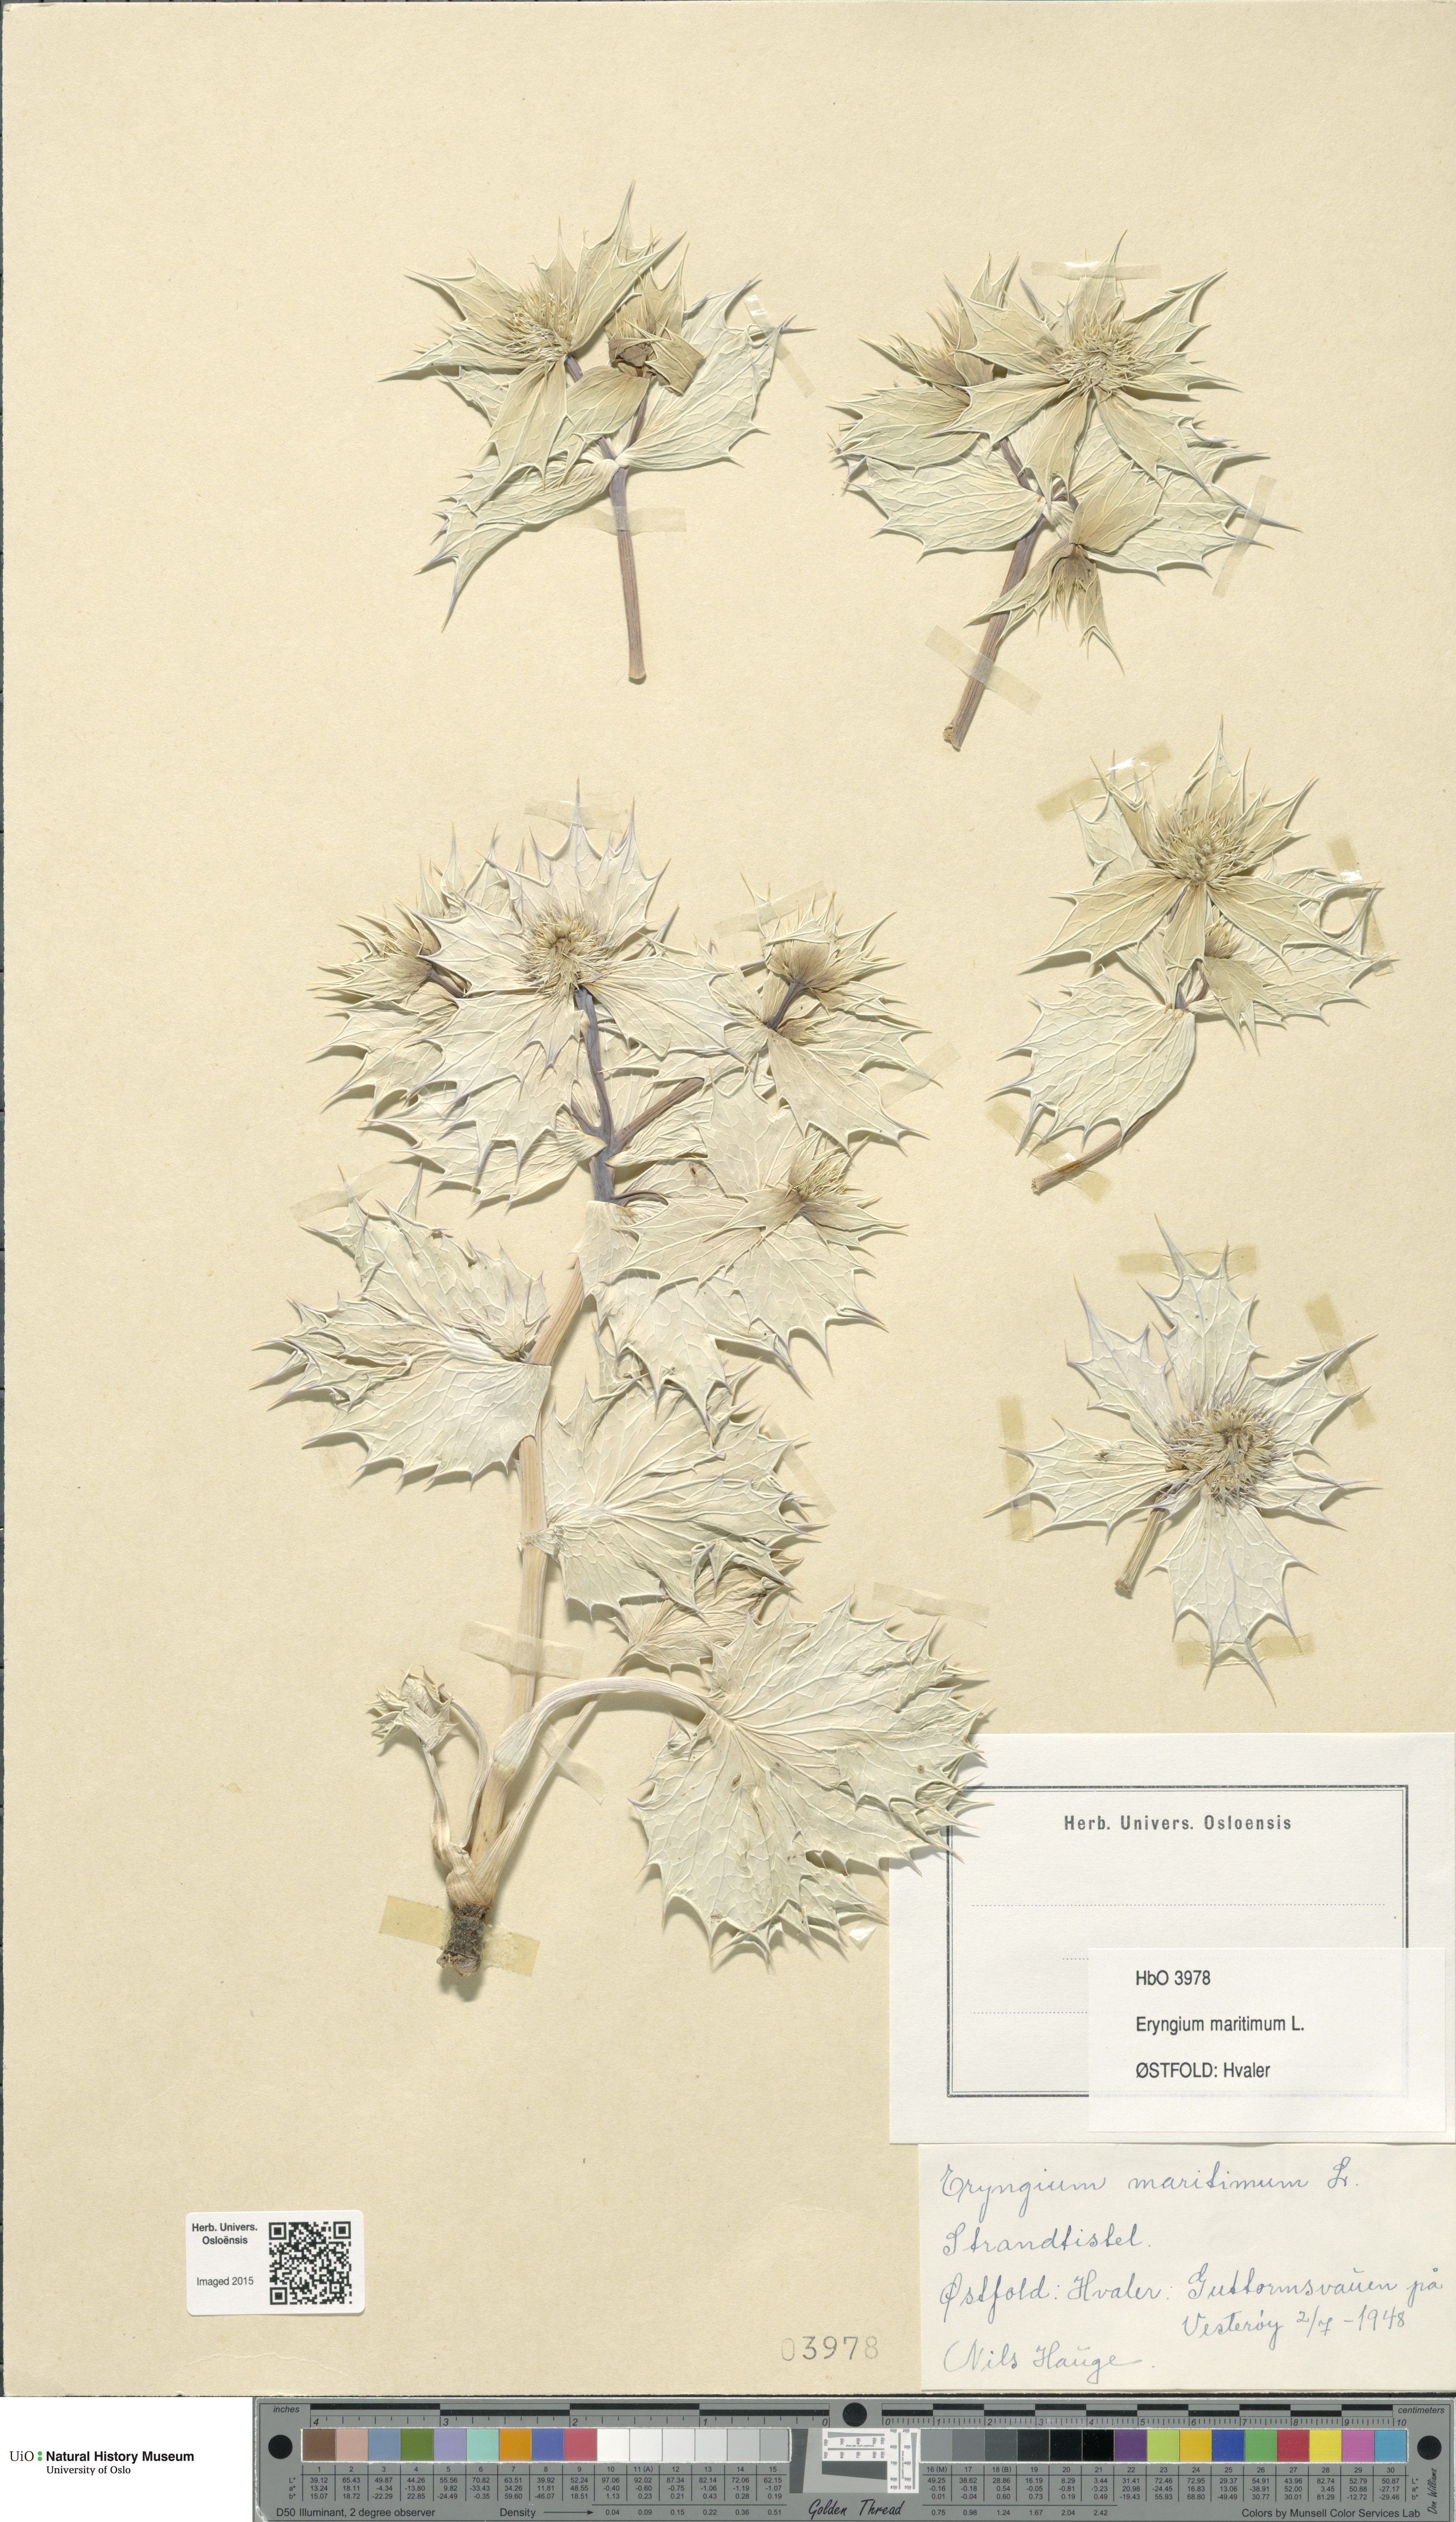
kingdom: Plantae
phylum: Tracheophyta
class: Magnoliopsida
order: Apiales
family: Apiaceae
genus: Eryngium
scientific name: Eryngium maritimum
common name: Sea-holly
